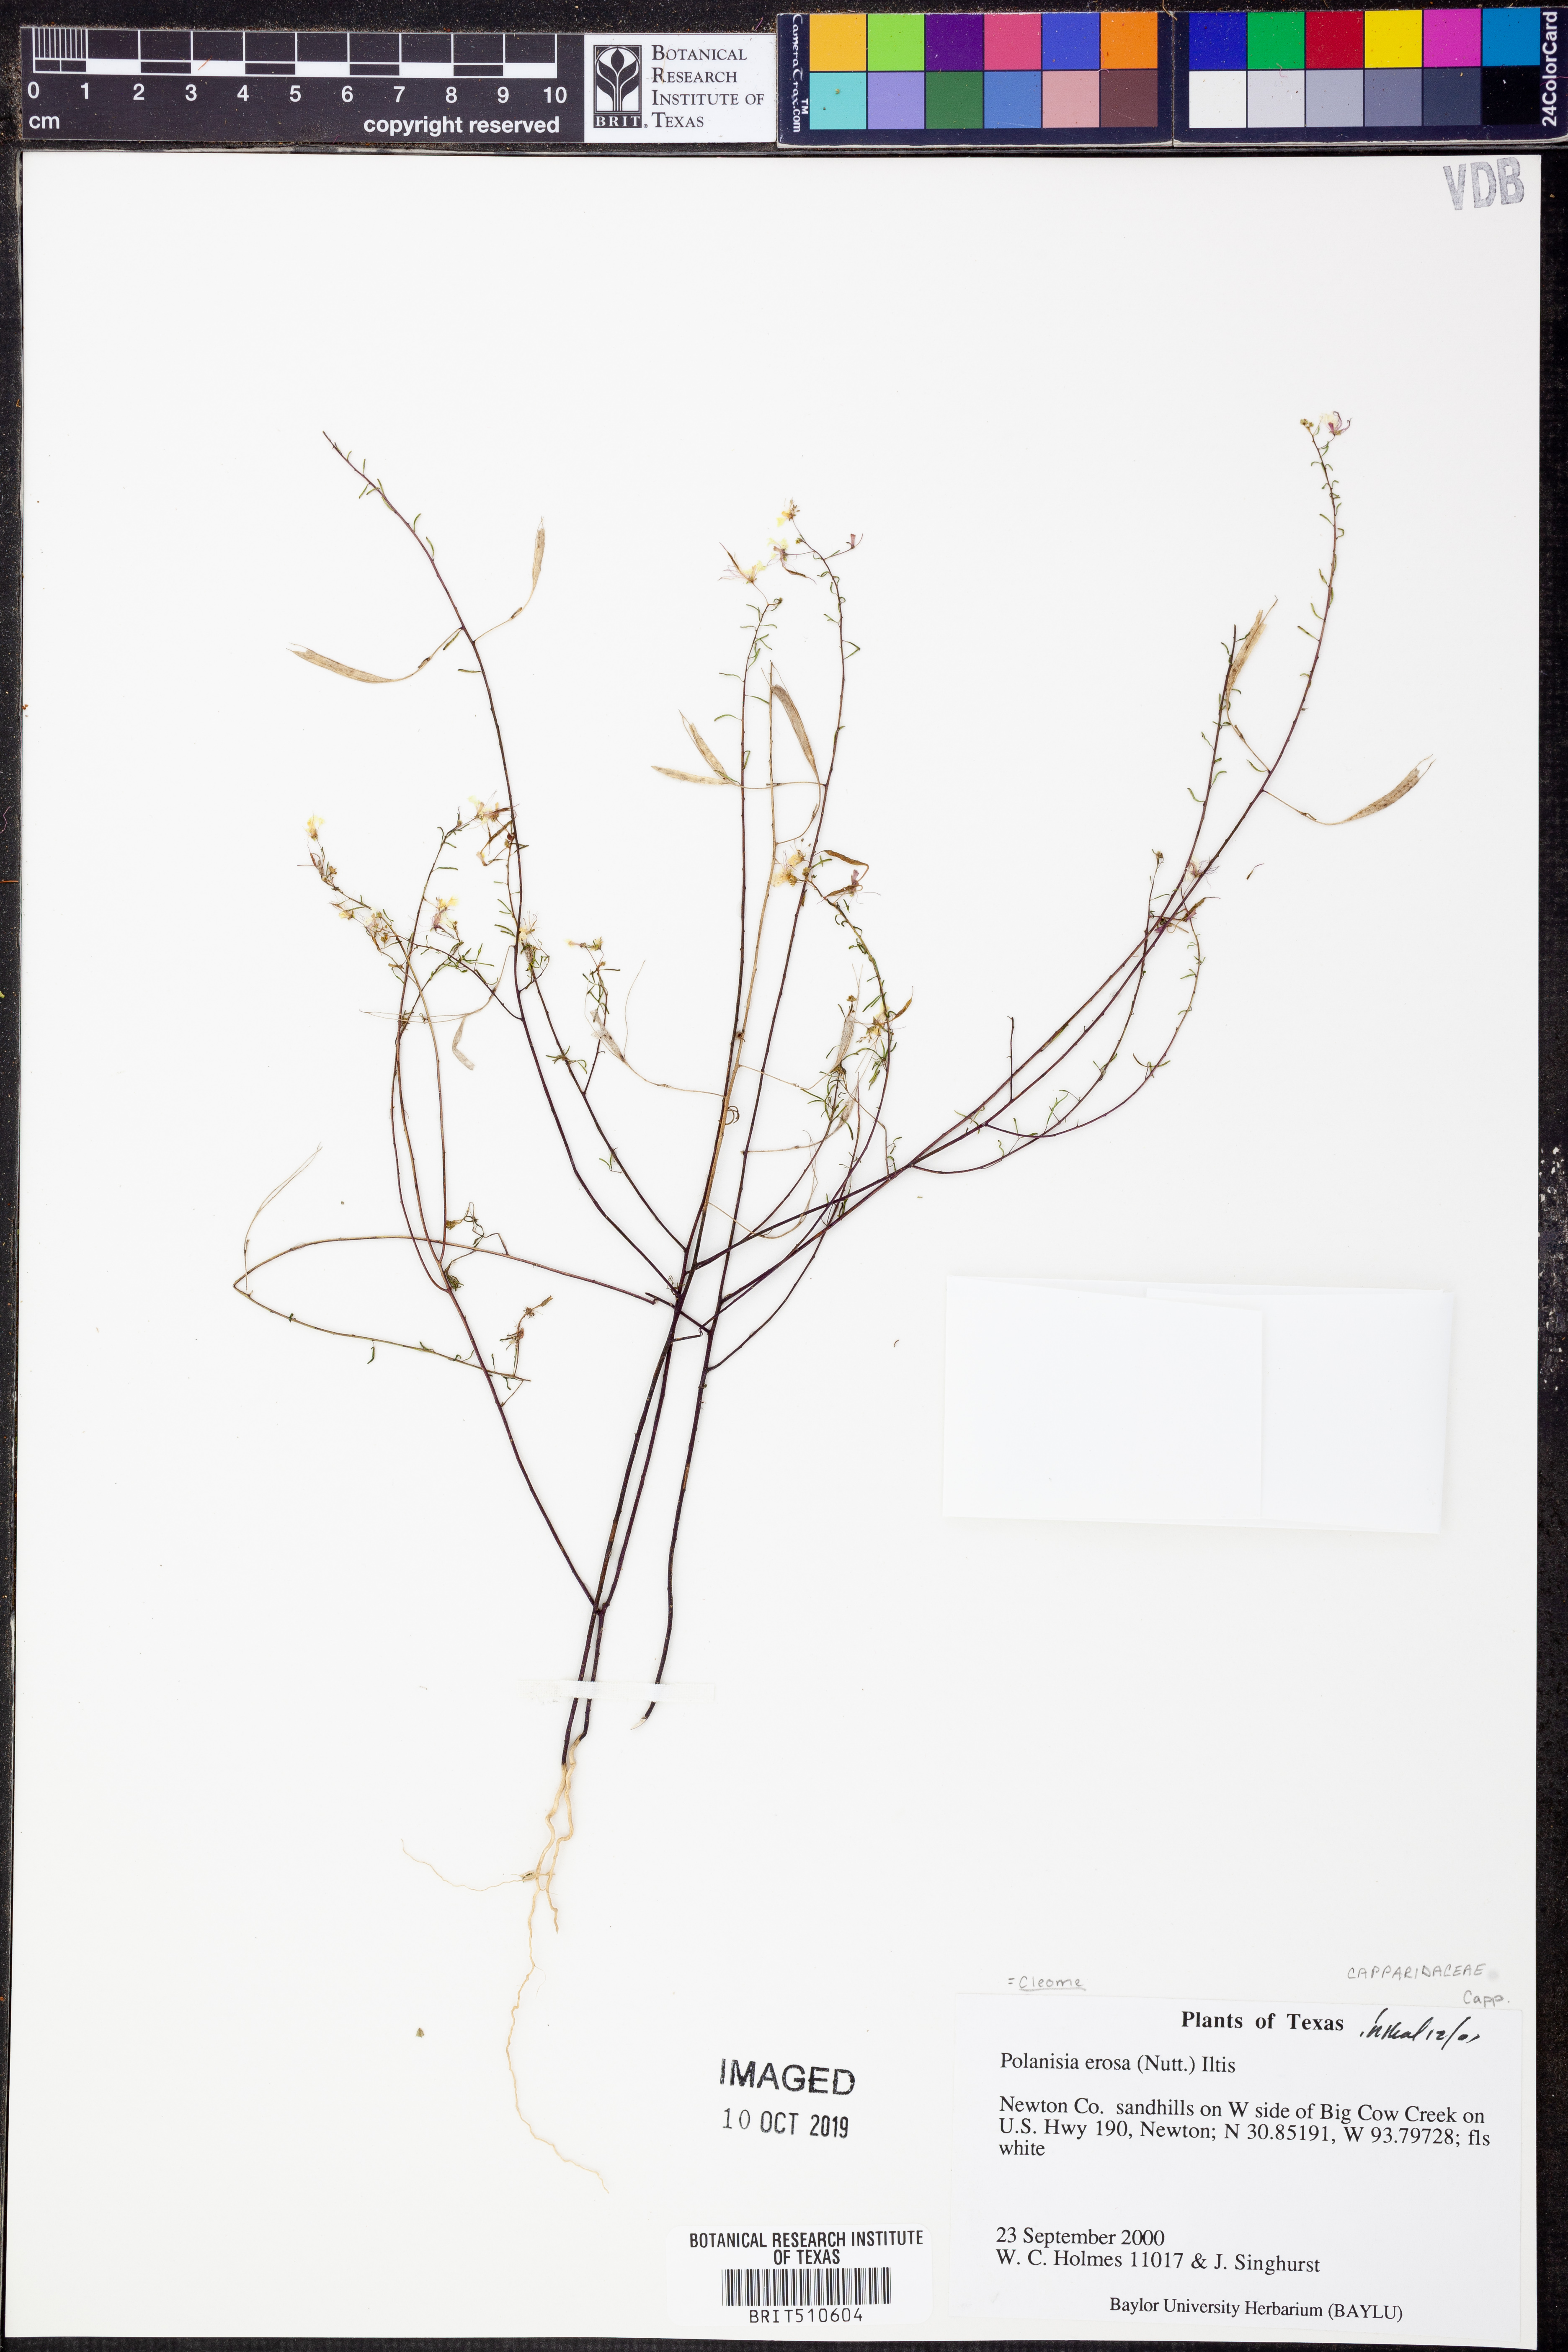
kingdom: Plantae
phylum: Tracheophyta
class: Magnoliopsida
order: Brassicales
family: Cleomaceae
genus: Polanisia
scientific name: Polanisia erosa
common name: Large clammyweed
